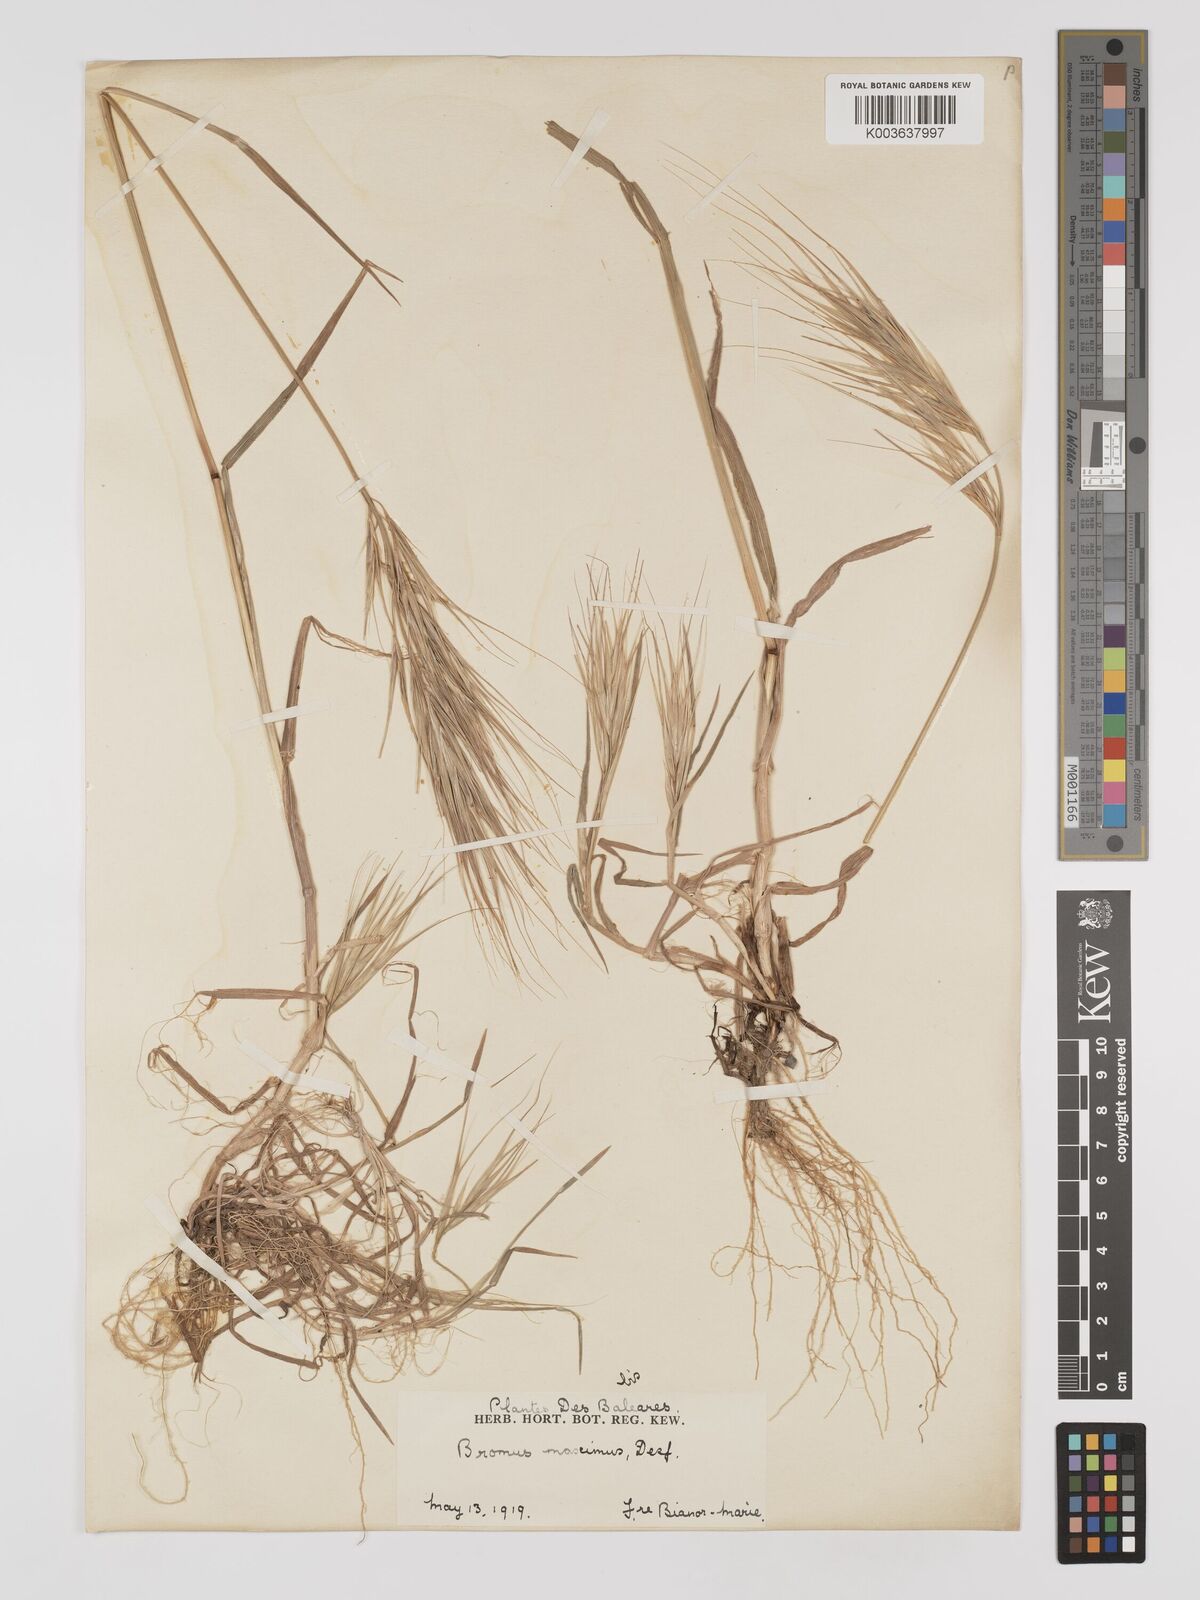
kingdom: Plantae
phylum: Tracheophyta
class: Liliopsida
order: Poales
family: Poaceae
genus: Bromus
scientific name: Bromus
